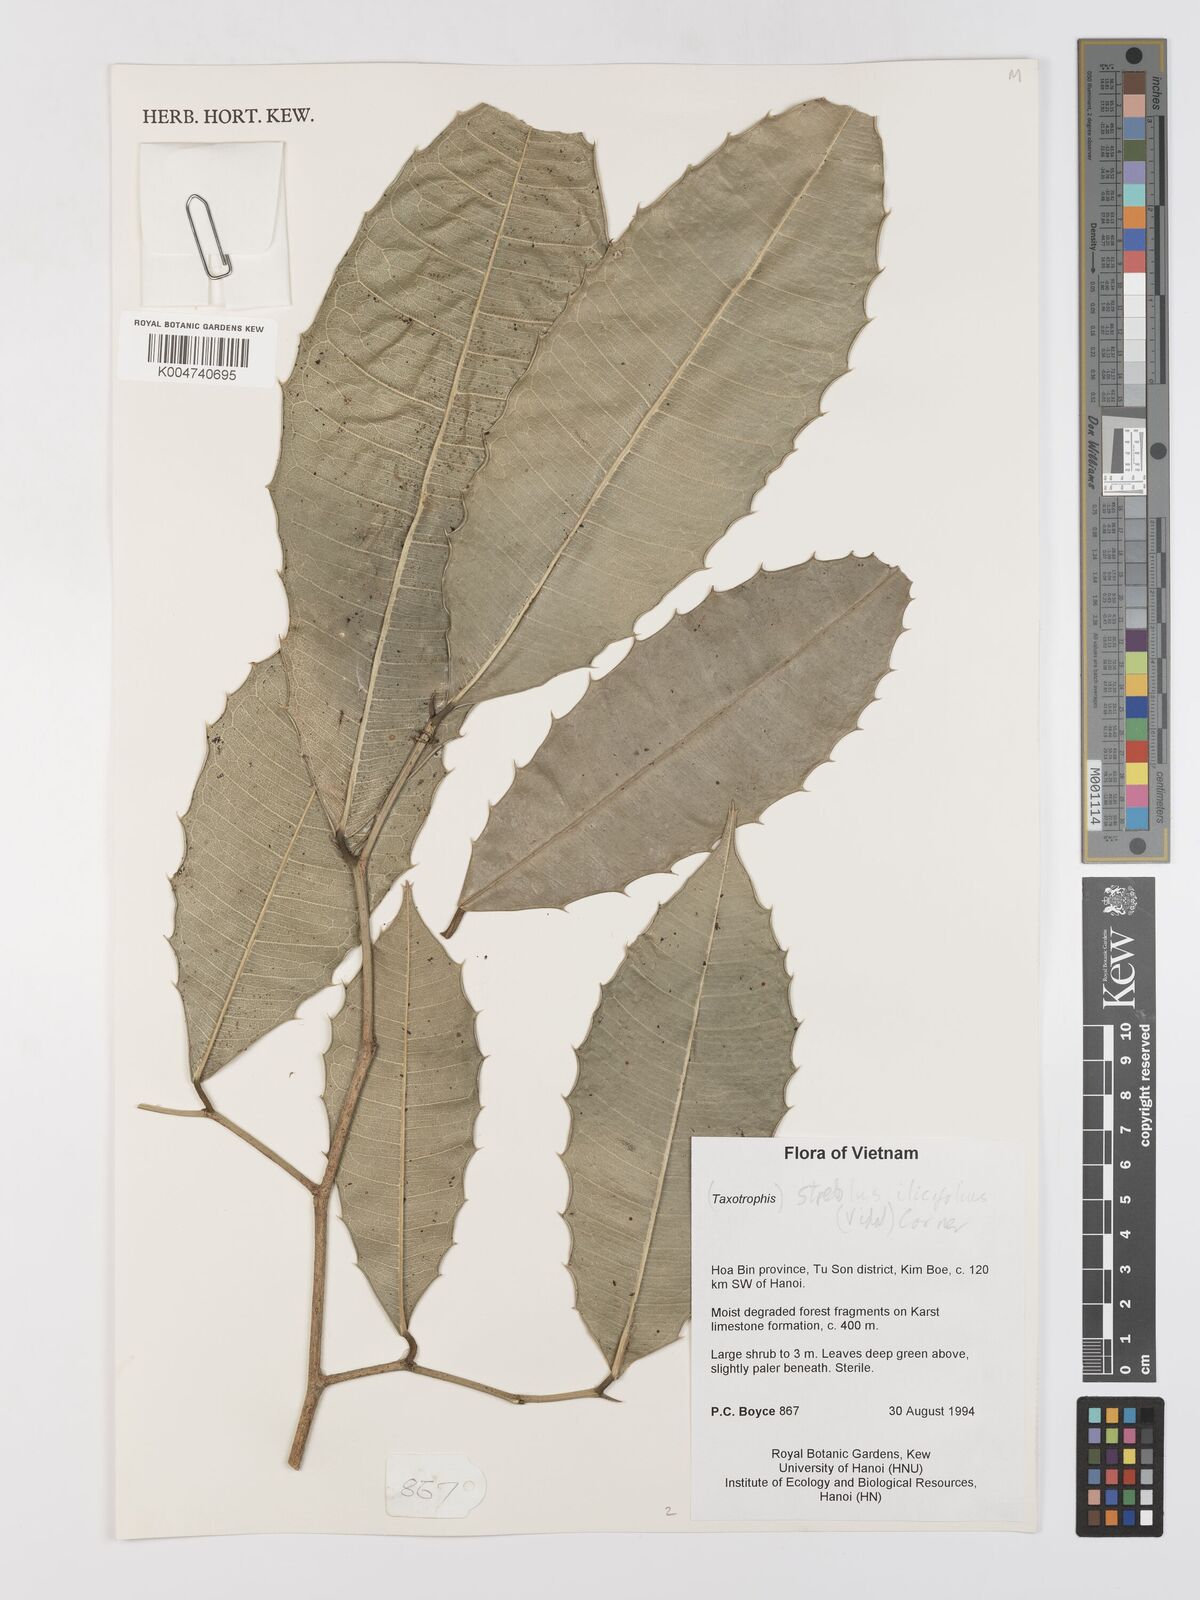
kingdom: Plantae
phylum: Tracheophyta
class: Magnoliopsida
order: Rosales
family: Moraceae
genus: Taxotrophis
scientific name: Taxotrophis ilicifolia
